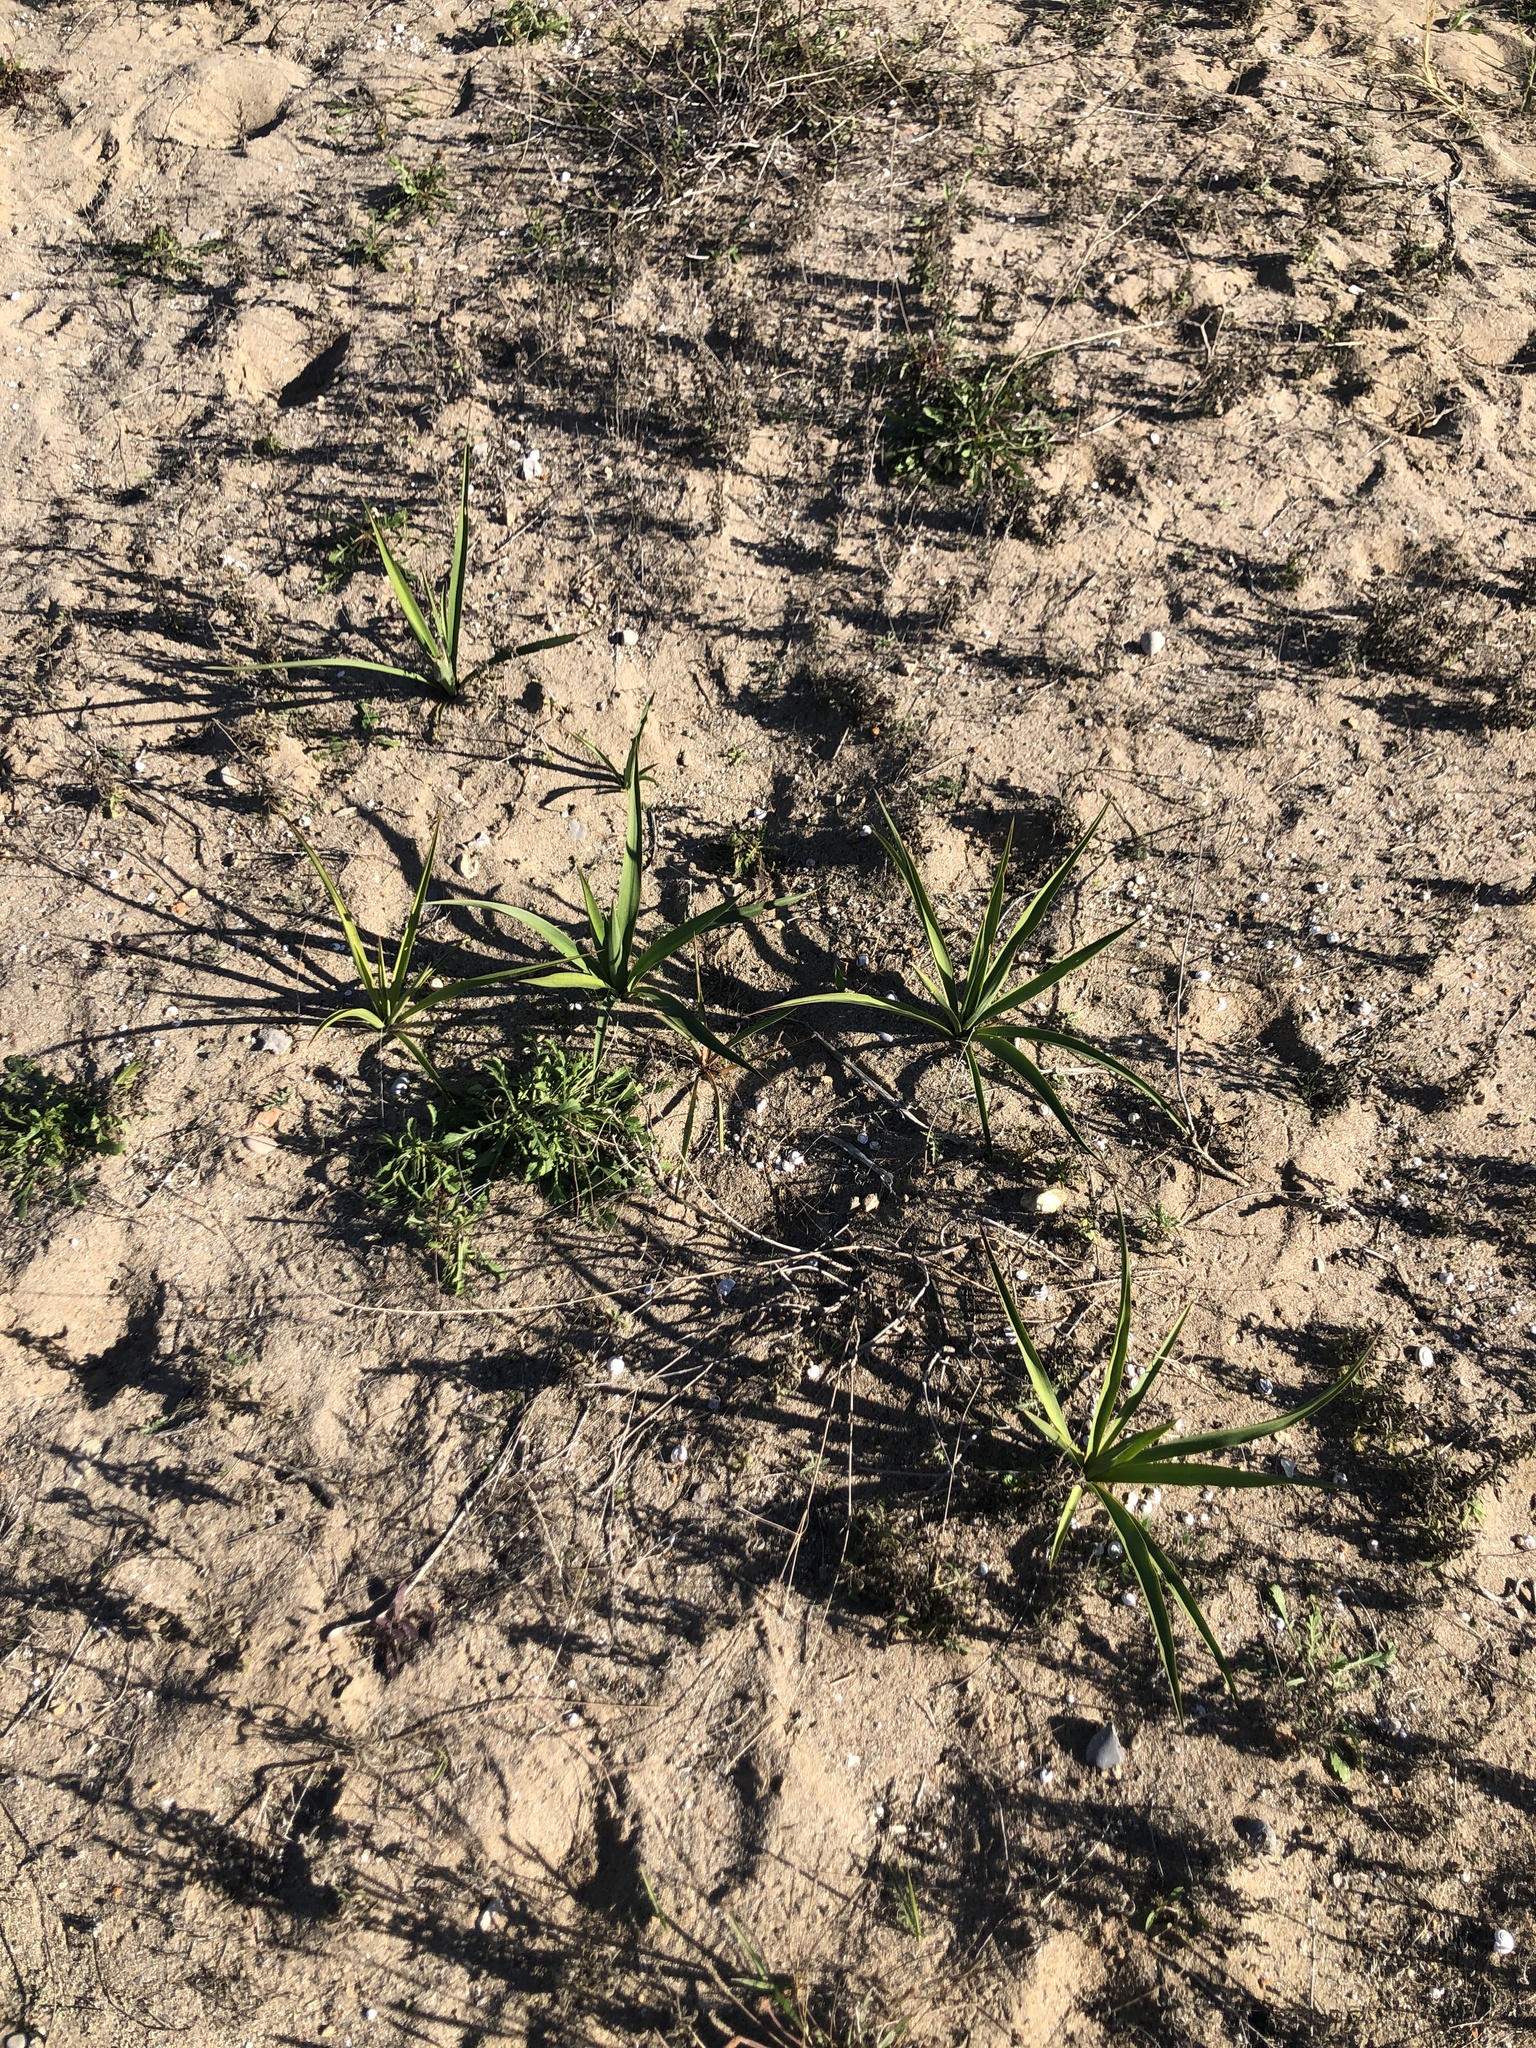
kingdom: Plantae
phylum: Tracheophyta
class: Liliopsida
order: Asparagales
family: Asparagaceae
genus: Yucca
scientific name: Yucca aloifolia
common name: Aloe yucca
